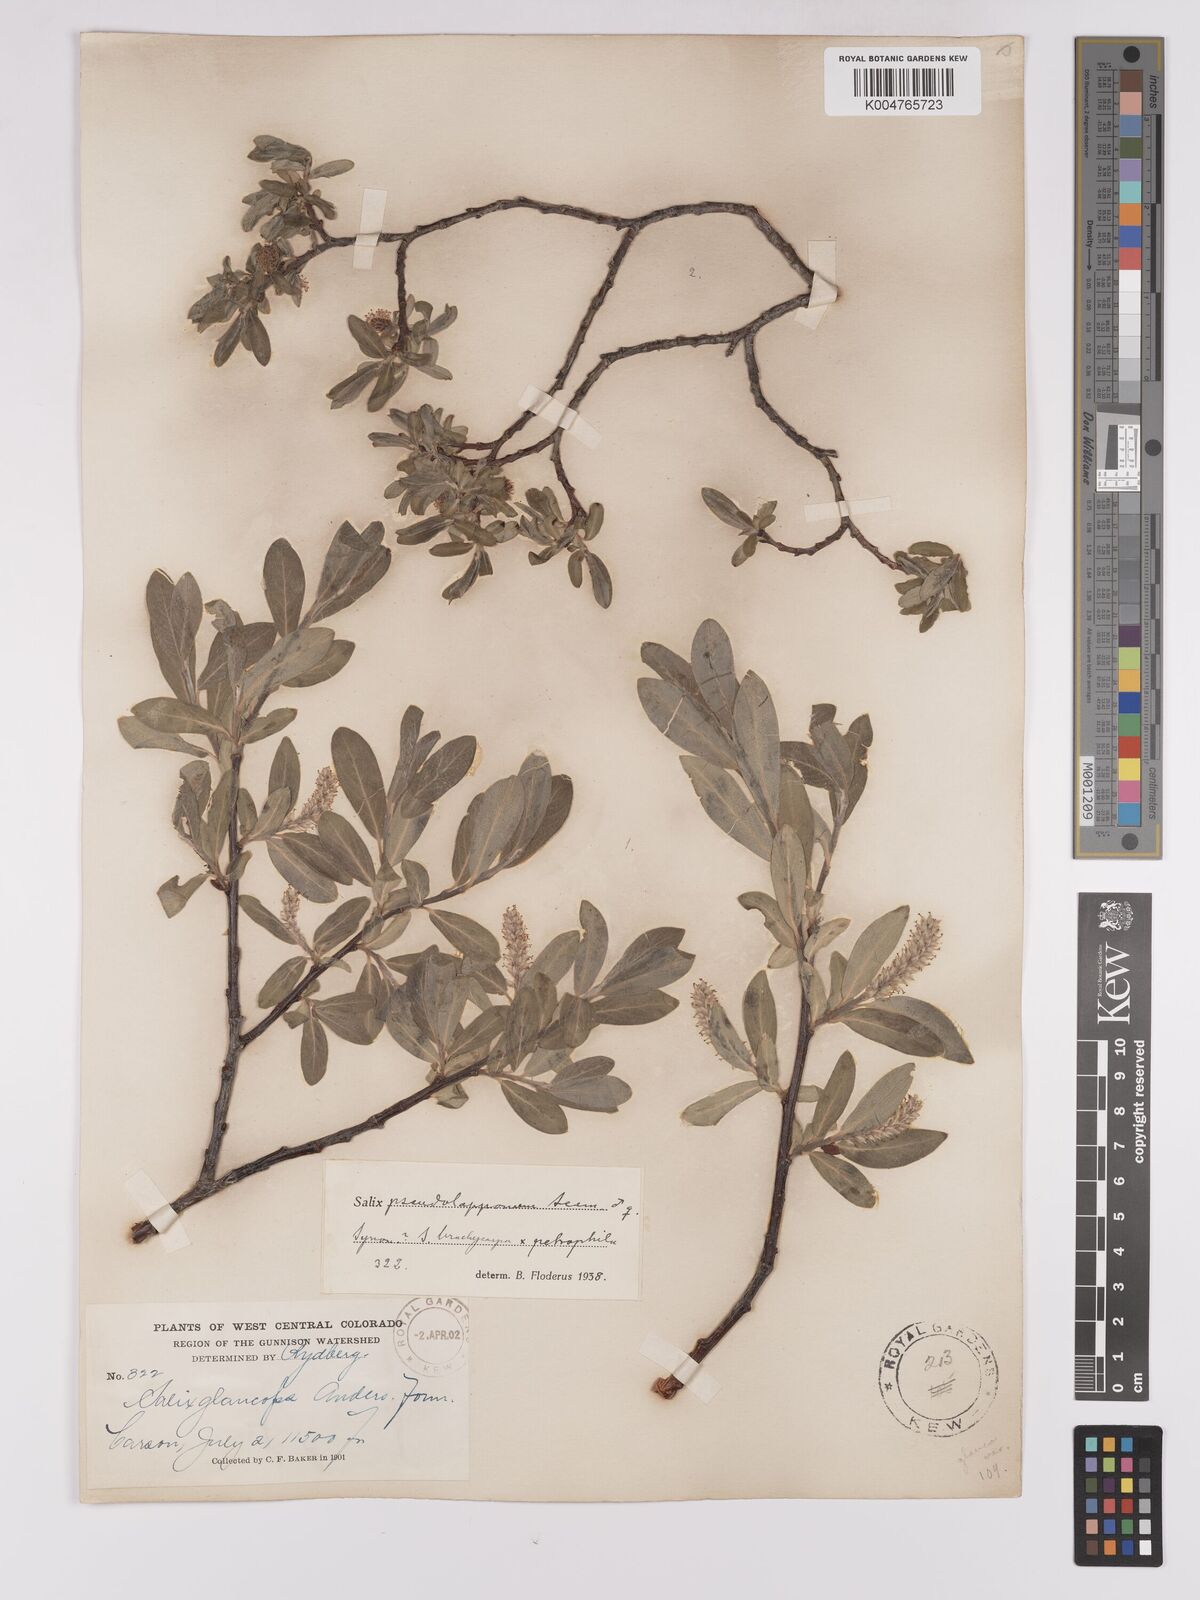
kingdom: Plantae
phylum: Tracheophyta
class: Magnoliopsida
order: Malpighiales
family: Salicaceae
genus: Salix
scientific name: Salix brachycarpa
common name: Barren-ground willow
